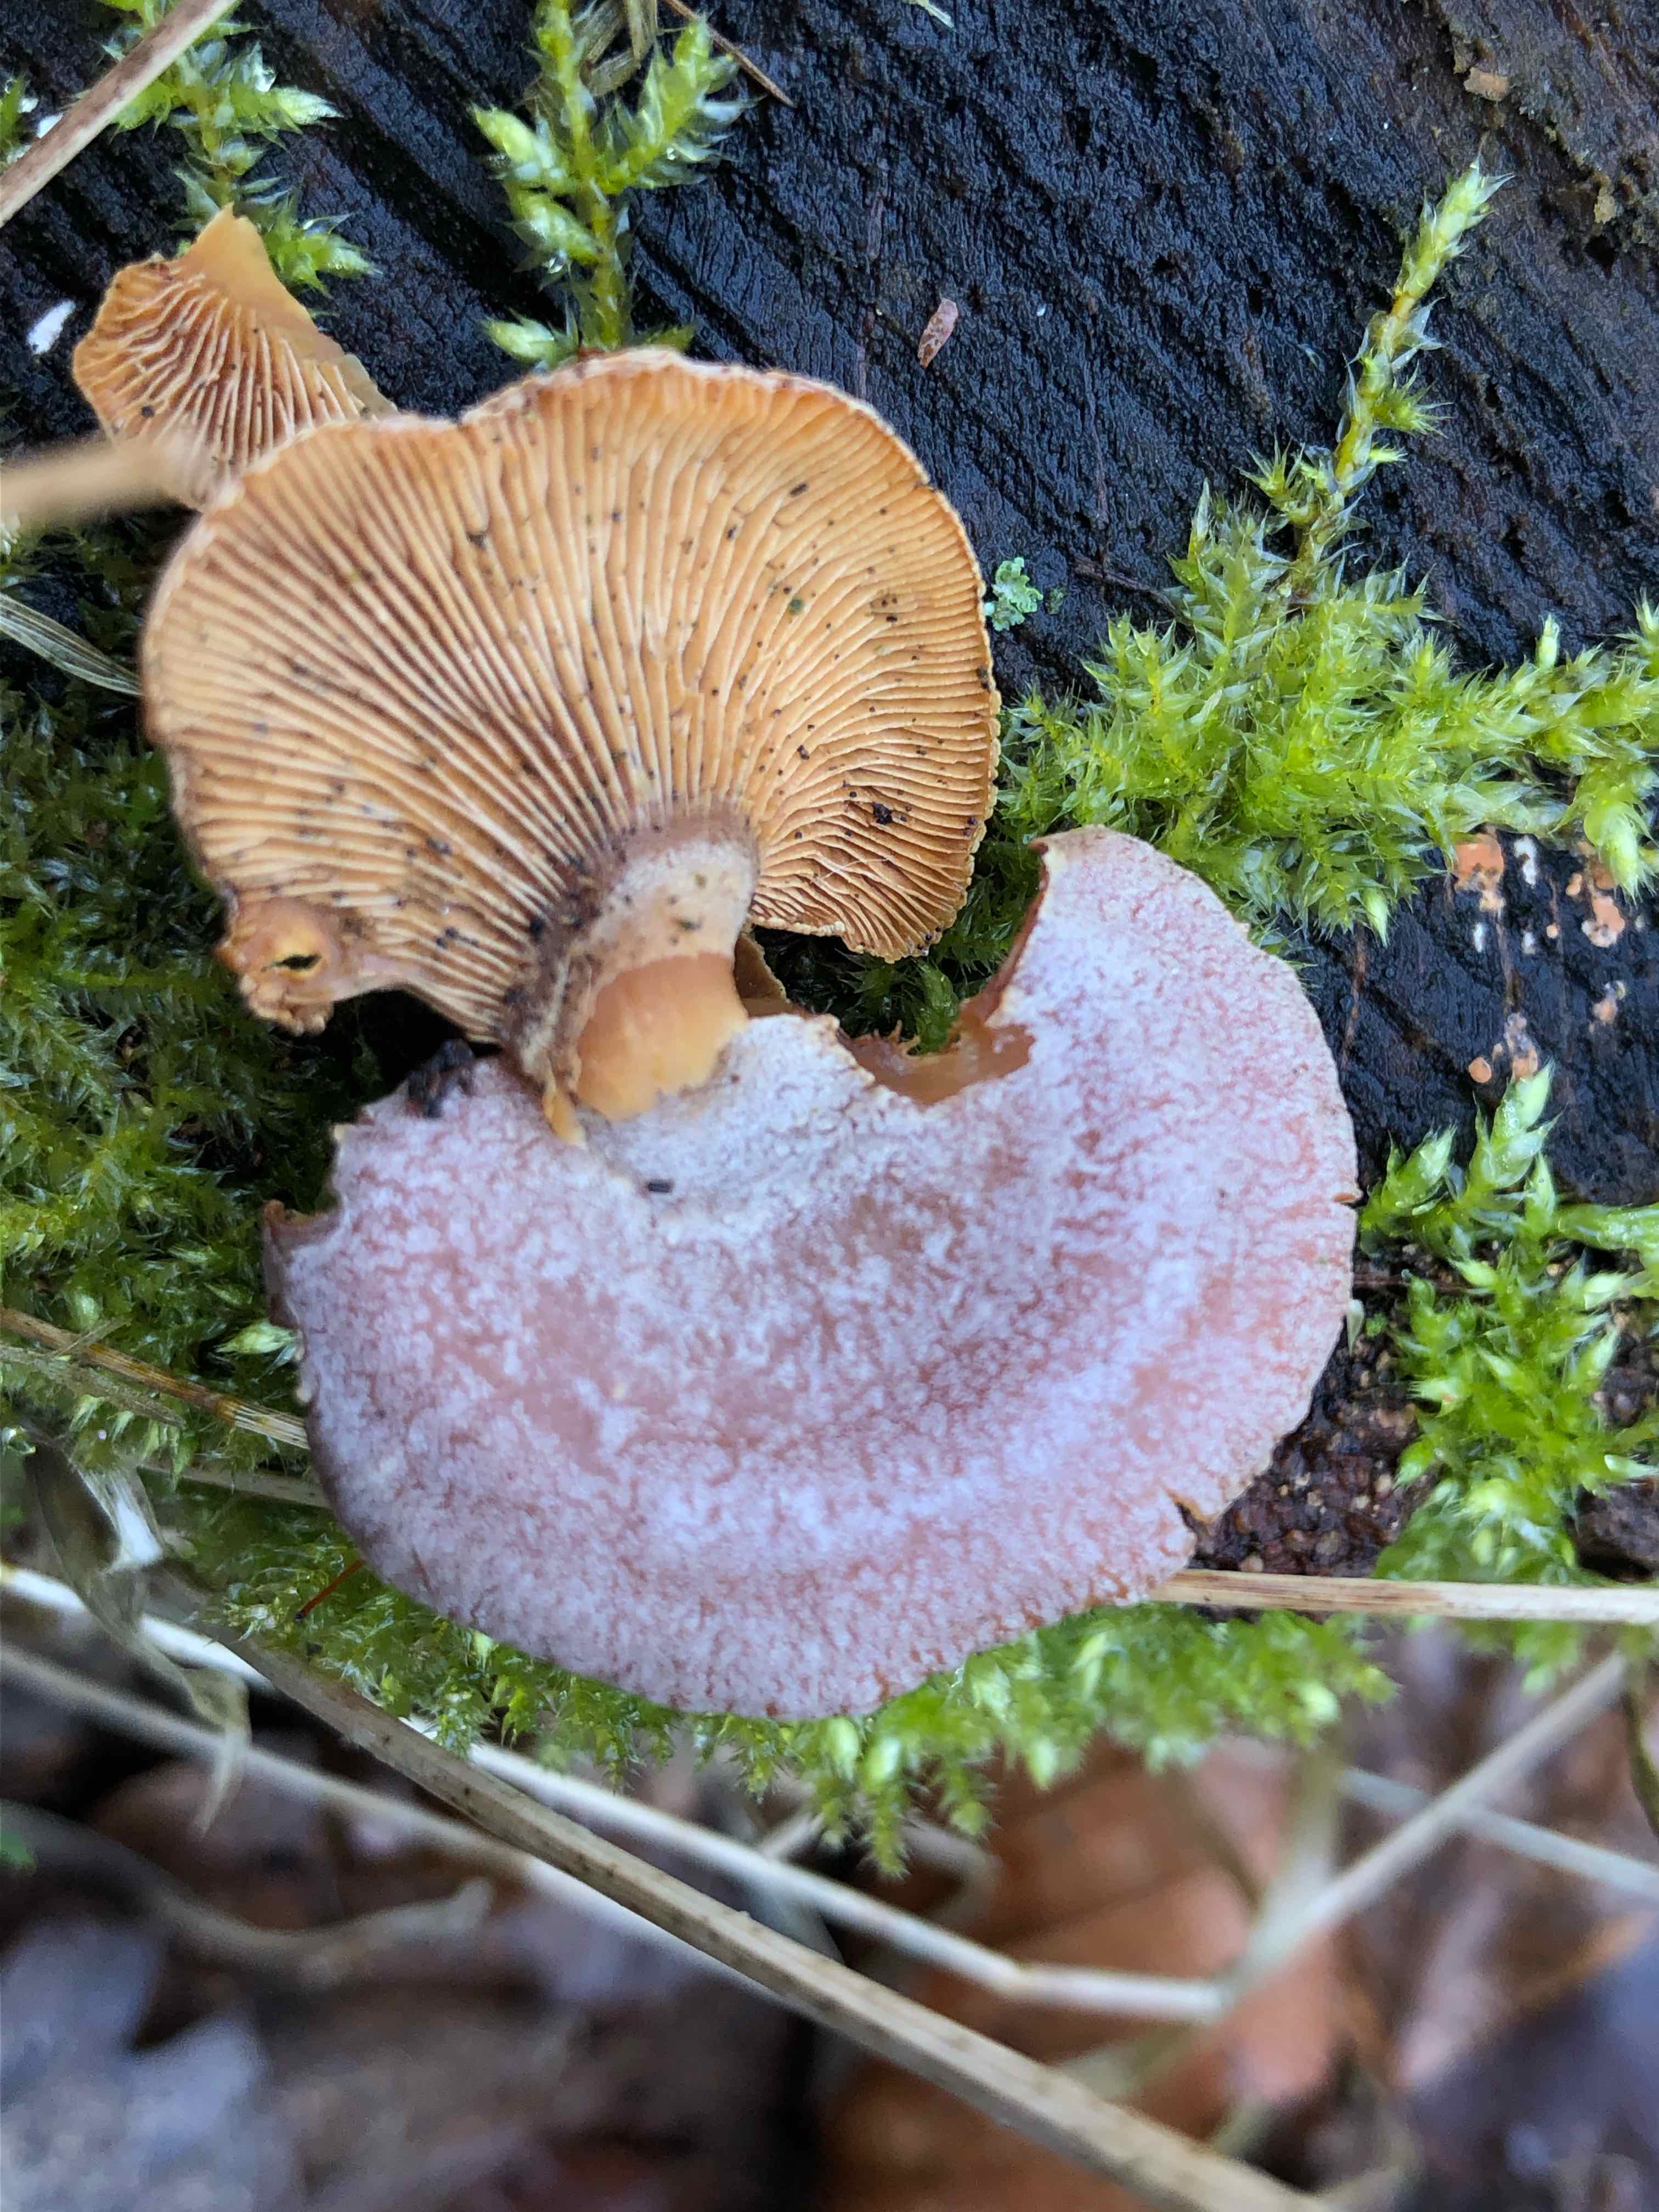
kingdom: Fungi
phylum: Basidiomycota
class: Agaricomycetes
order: Agaricales
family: Mycenaceae
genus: Panellus
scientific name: Panellus stipticus
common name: kliddet epaulethat
